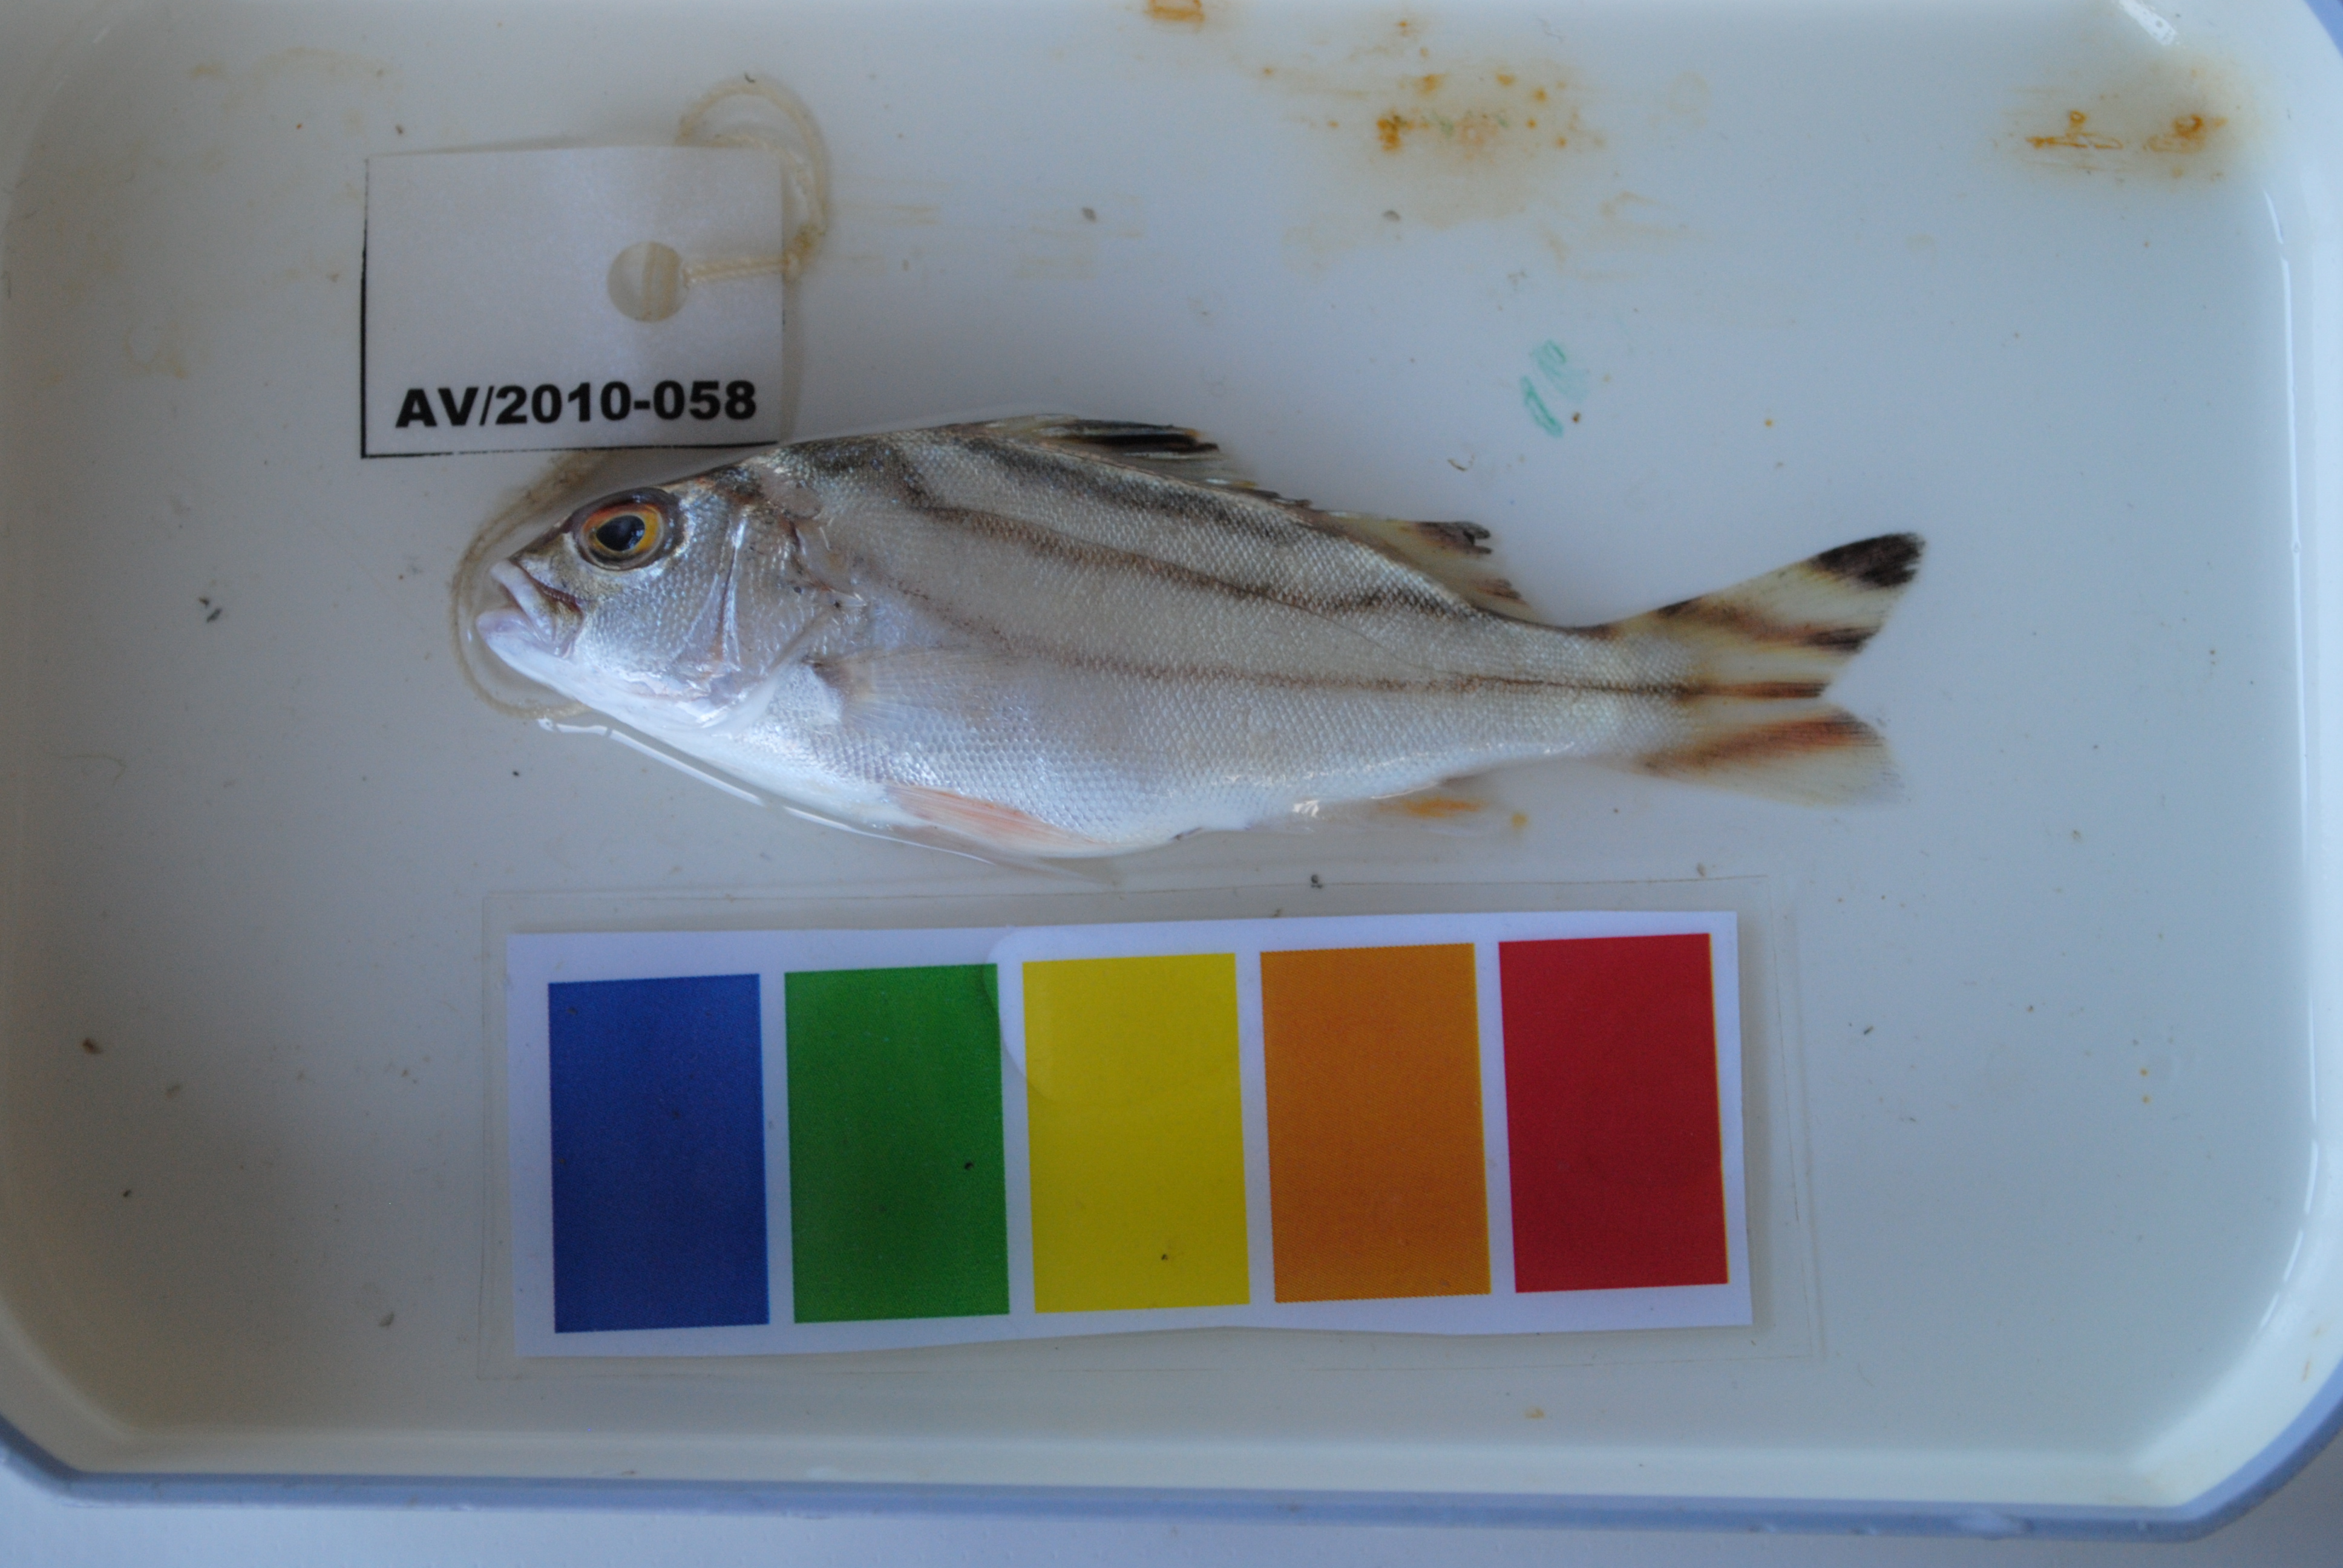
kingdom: Animalia
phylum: Chordata
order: Perciformes
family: Terapontidae
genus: Terapon
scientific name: Terapon jarbua
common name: Jarbua terapon
